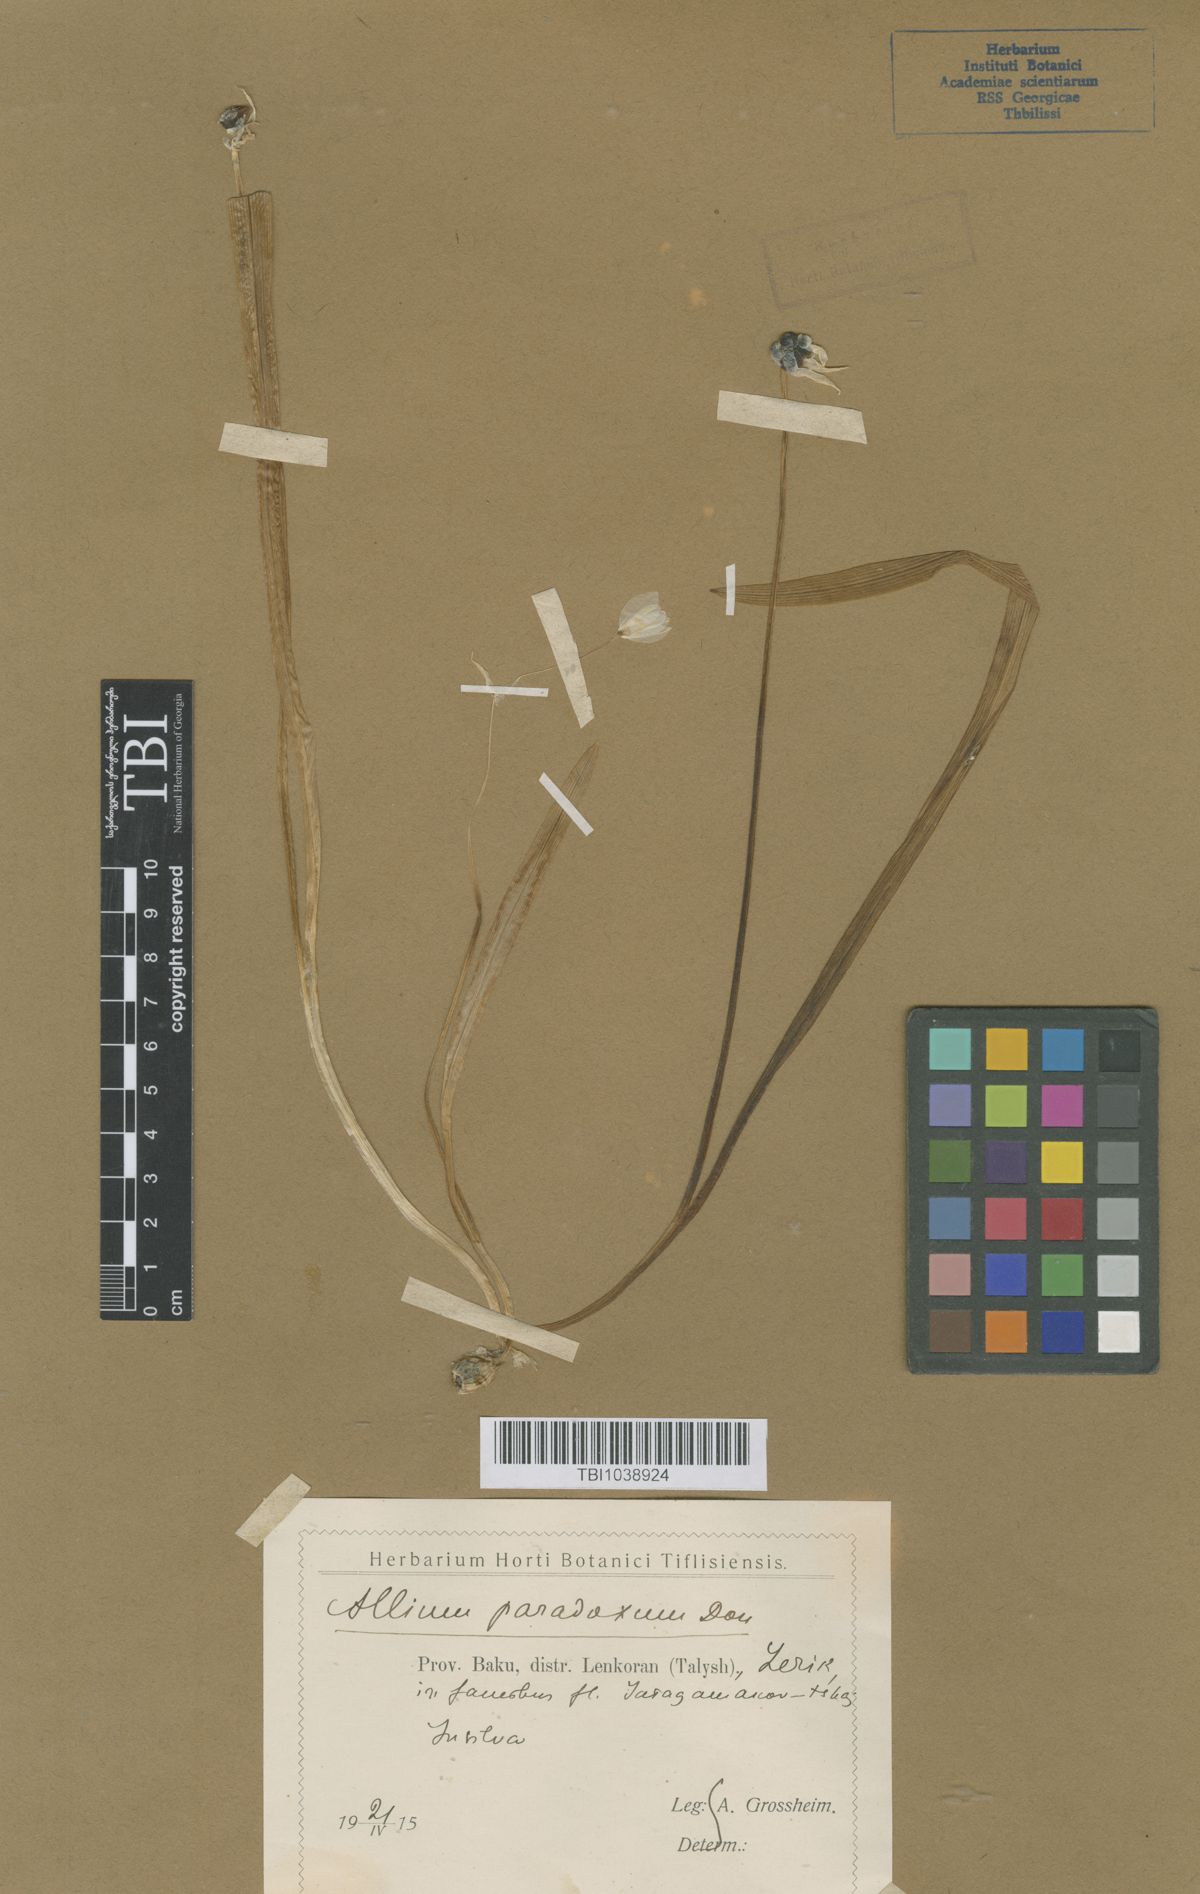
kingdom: Plantae
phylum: Tracheophyta
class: Liliopsida
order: Asparagales
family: Amaryllidaceae
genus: Allium
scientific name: Allium paradoxum
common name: Few-flowered garlic
